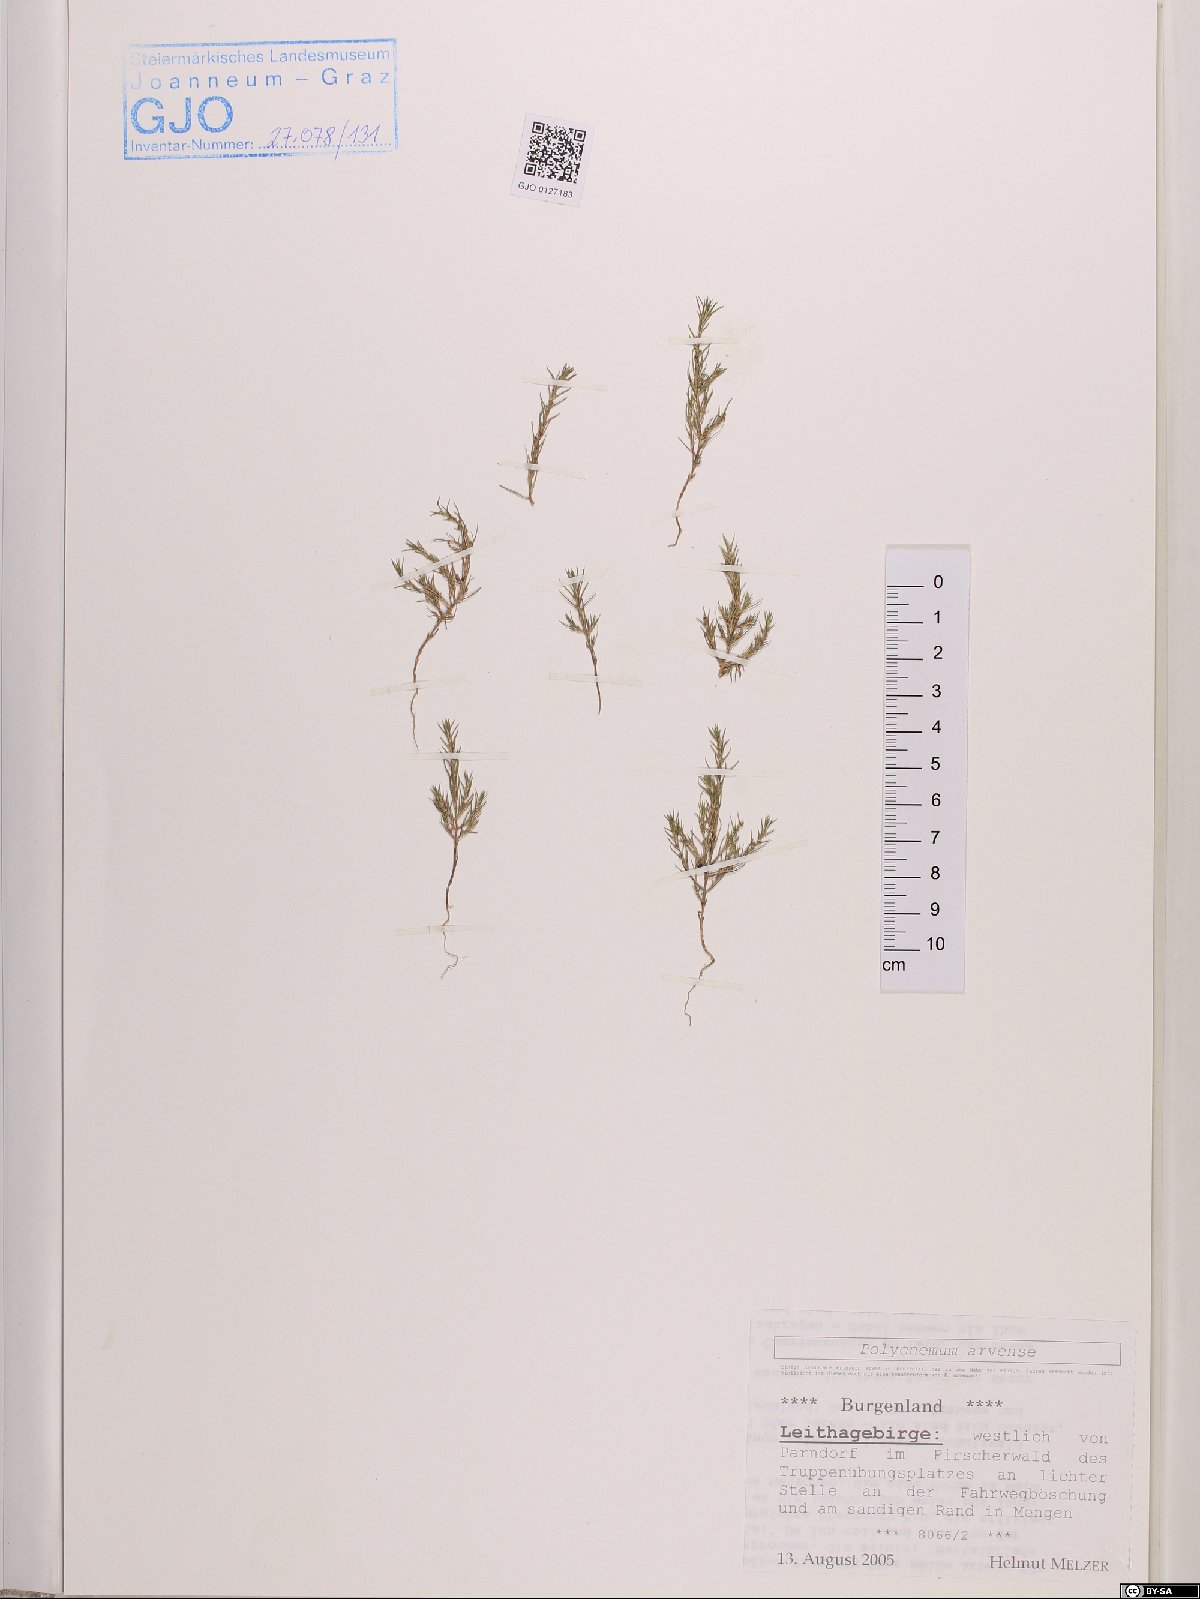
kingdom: Plantae
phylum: Tracheophyta
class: Magnoliopsida
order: Caryophyllales
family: Amaranthaceae
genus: Polycnemum
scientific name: Polycnemum arvense
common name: Soft needleleaf
